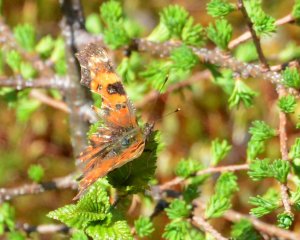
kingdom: Animalia
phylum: Arthropoda
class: Insecta
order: Lepidoptera
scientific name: Lepidoptera
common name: Butterflies
